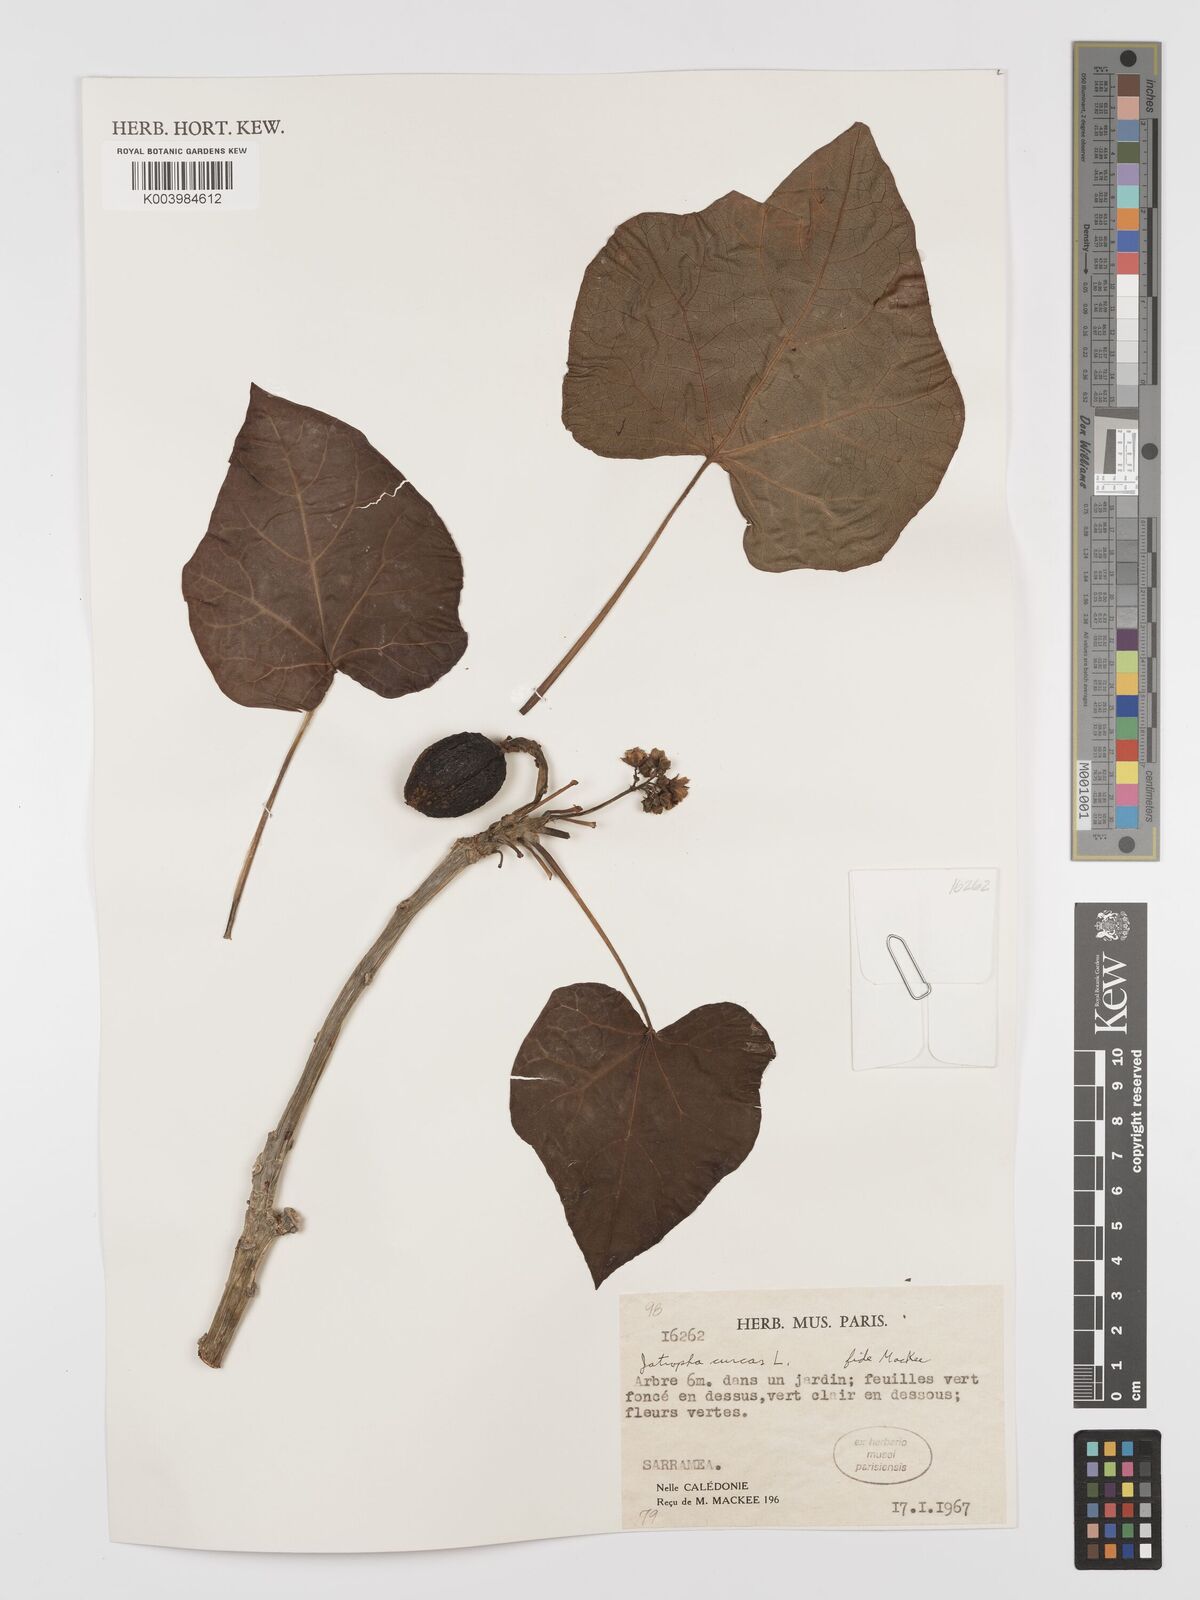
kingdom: Plantae
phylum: Tracheophyta
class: Magnoliopsida
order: Malpighiales
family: Euphorbiaceae
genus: Jatropha
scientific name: Jatropha curcas
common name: Barbados nut
